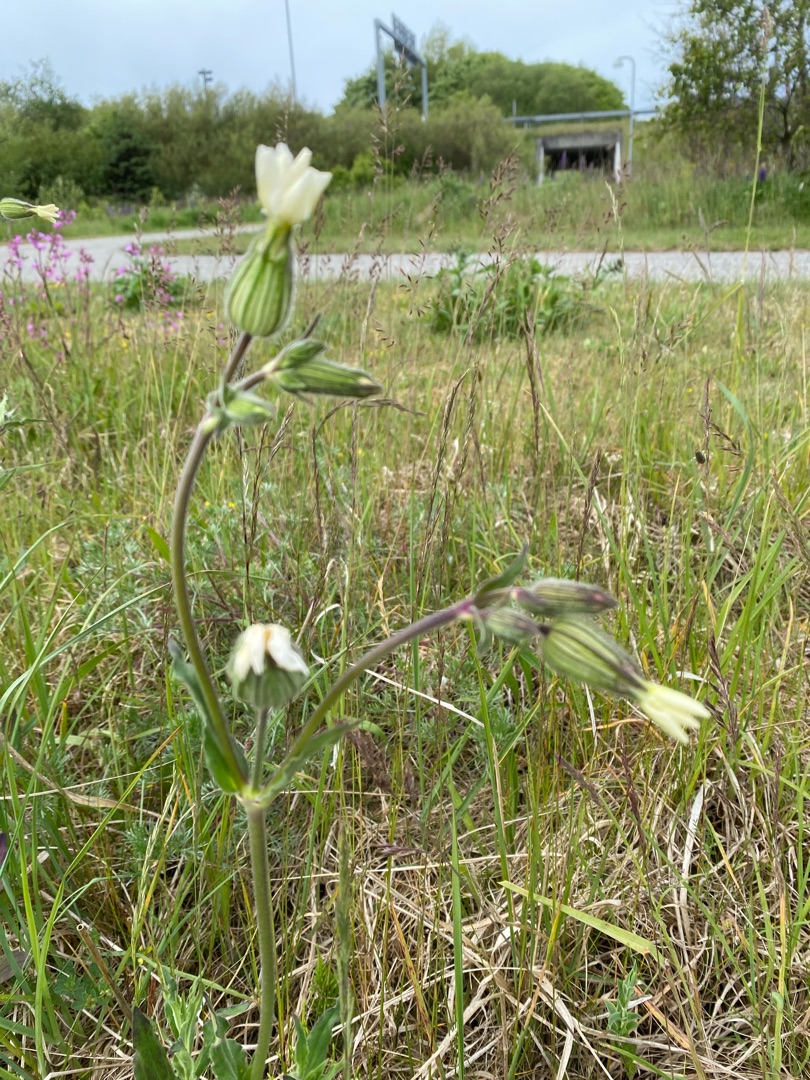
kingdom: Plantae
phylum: Tracheophyta
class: Magnoliopsida
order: Caryophyllales
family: Caryophyllaceae
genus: Silene
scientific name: Silene latifolia
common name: Aftenpragtstjerne
